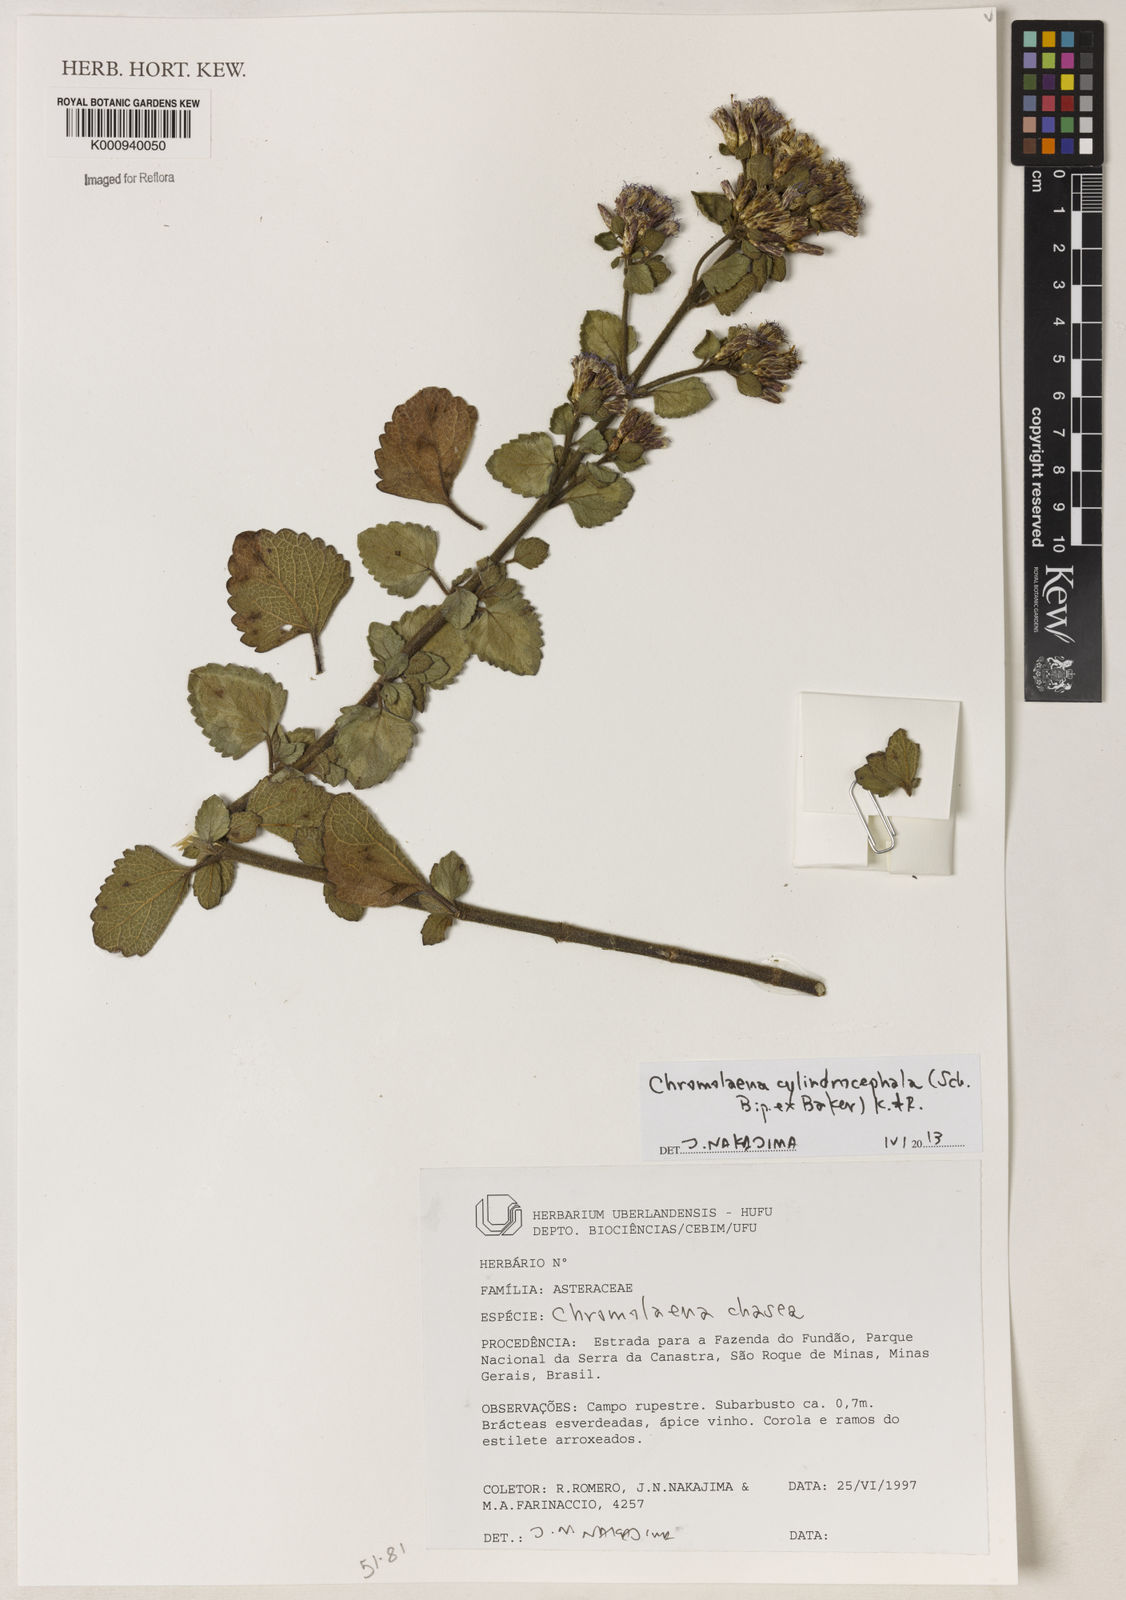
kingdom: Plantae
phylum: Tracheophyta
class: Magnoliopsida
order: Asterales
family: Asteraceae
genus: Chromolaena
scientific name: Chromolaena cylindrocephala
